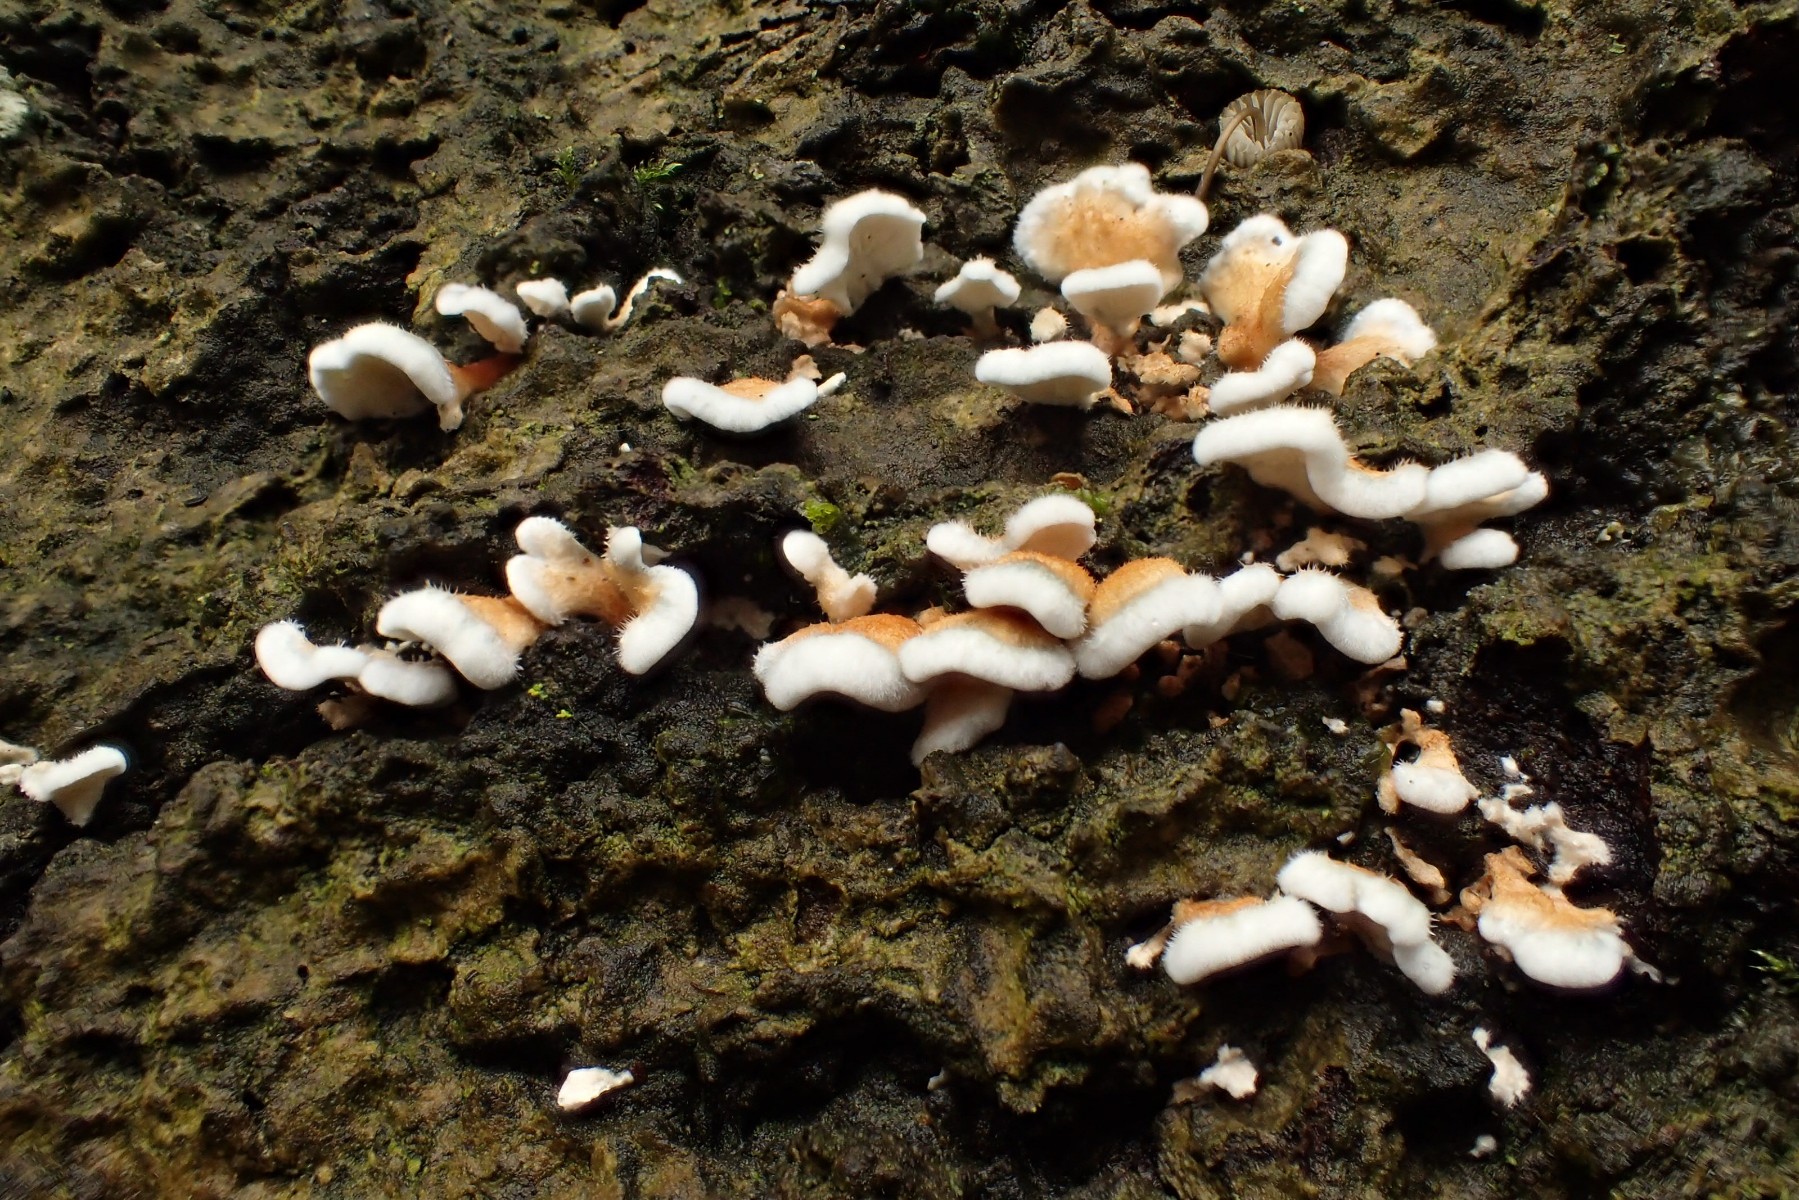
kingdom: Fungi
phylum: Basidiomycota
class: Agaricomycetes
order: Amylocorticiales
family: Amylocorticiaceae
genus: Plicaturopsis
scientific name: Plicaturopsis crispa
